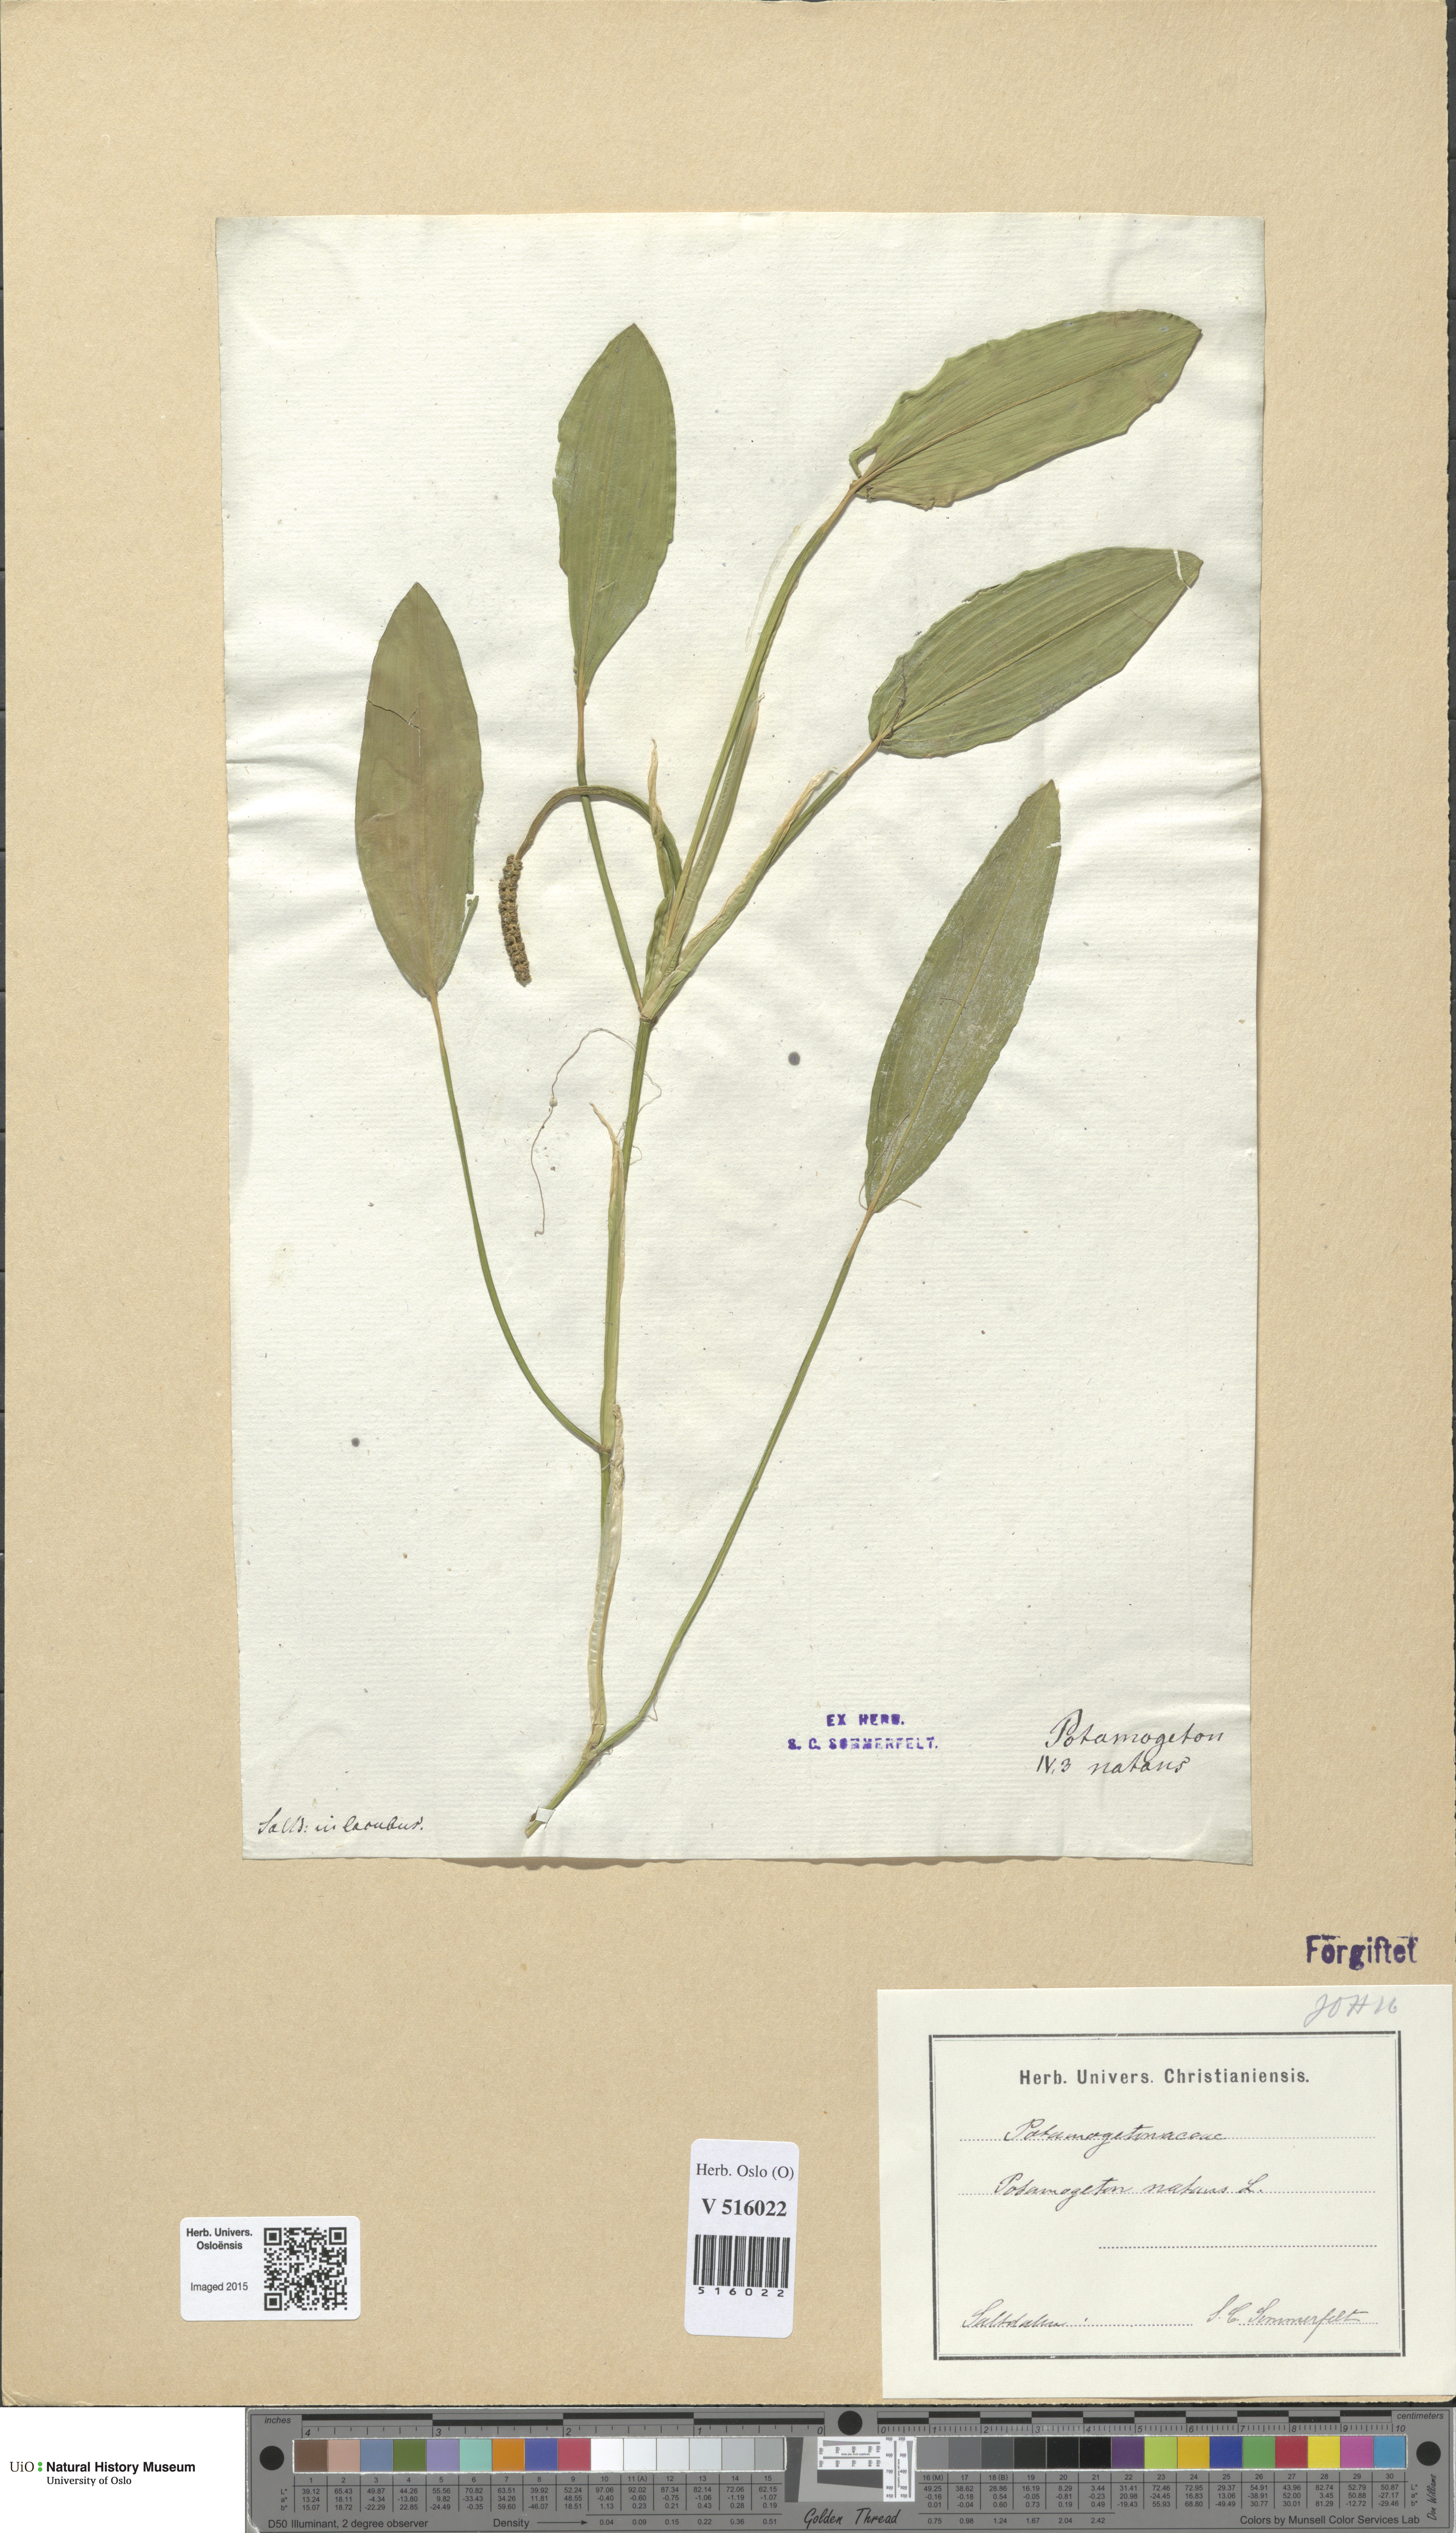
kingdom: Plantae
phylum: Tracheophyta
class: Liliopsida
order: Alismatales
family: Potamogetonaceae
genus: Potamogeton
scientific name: Potamogeton natans
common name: Broad-leaved pondweed
